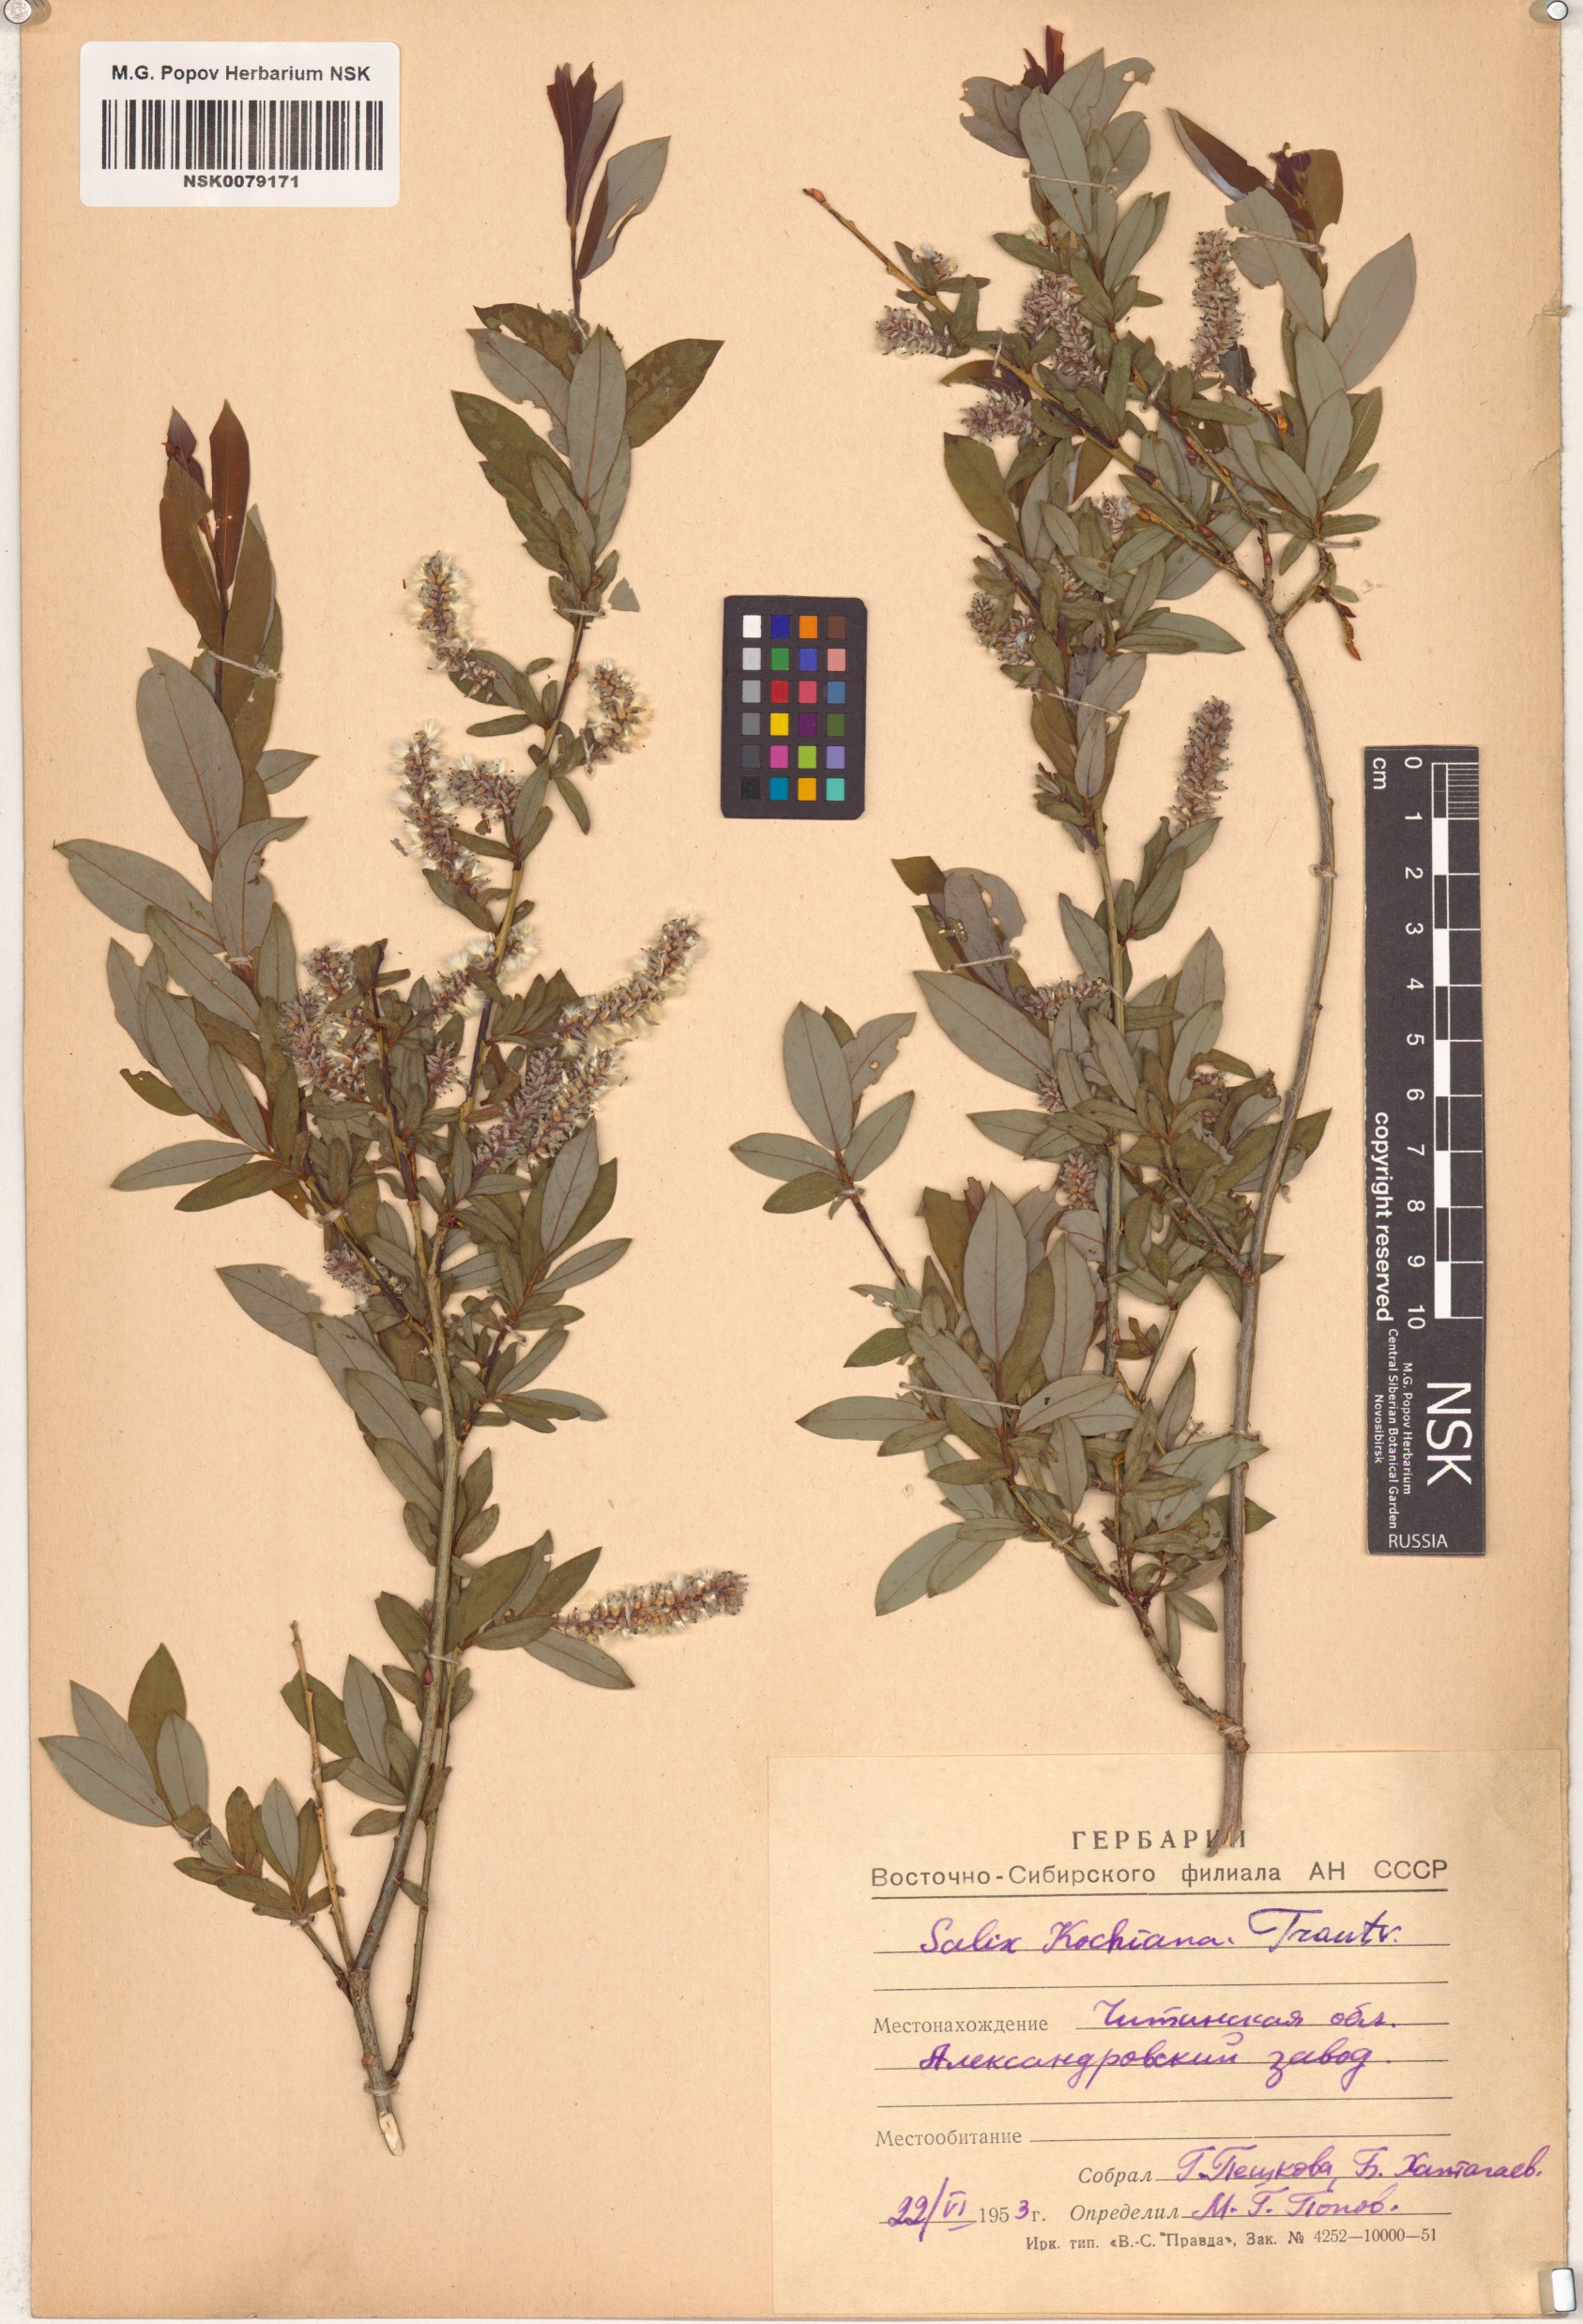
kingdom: Plantae
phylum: Tracheophyta
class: Magnoliopsida
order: Malpighiales
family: Salicaceae
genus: Salix
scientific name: Salix kochiana
